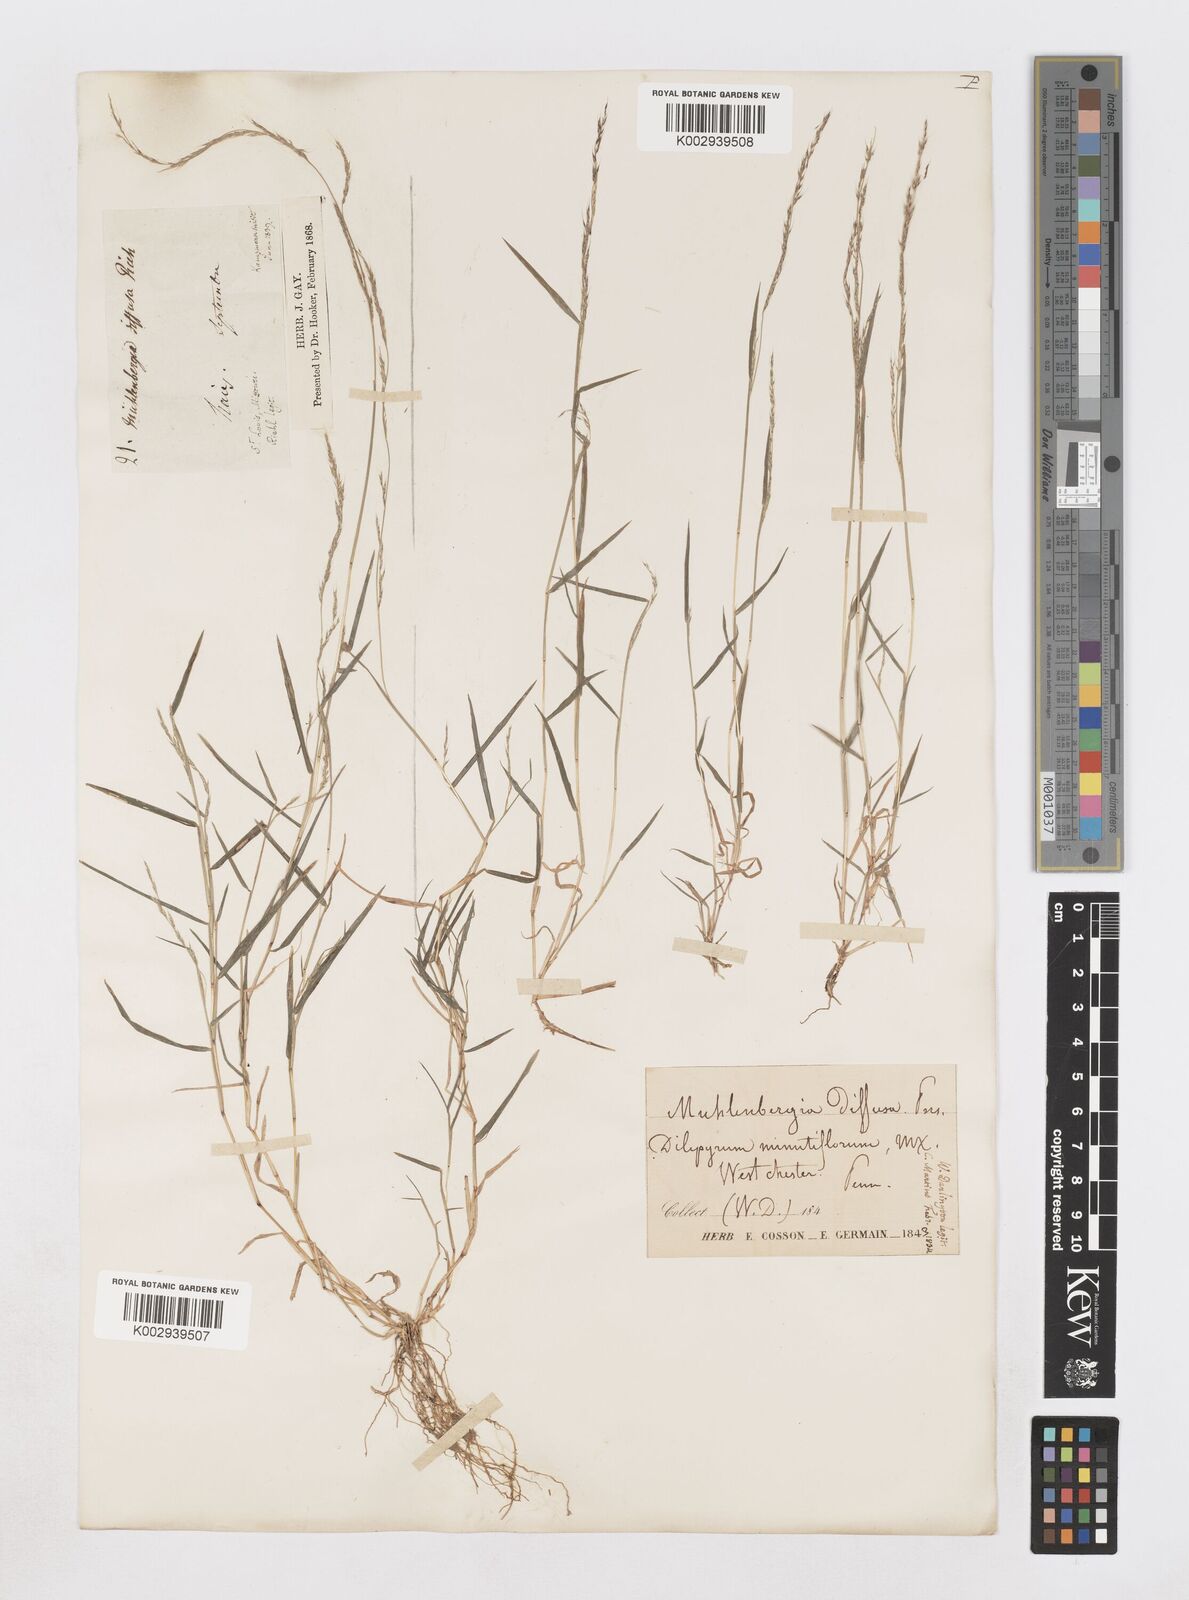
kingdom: Plantae
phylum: Tracheophyta
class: Liliopsida
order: Poales
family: Poaceae
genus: Muhlenbergia
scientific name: Muhlenbergia schreberi
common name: Nimblewill
